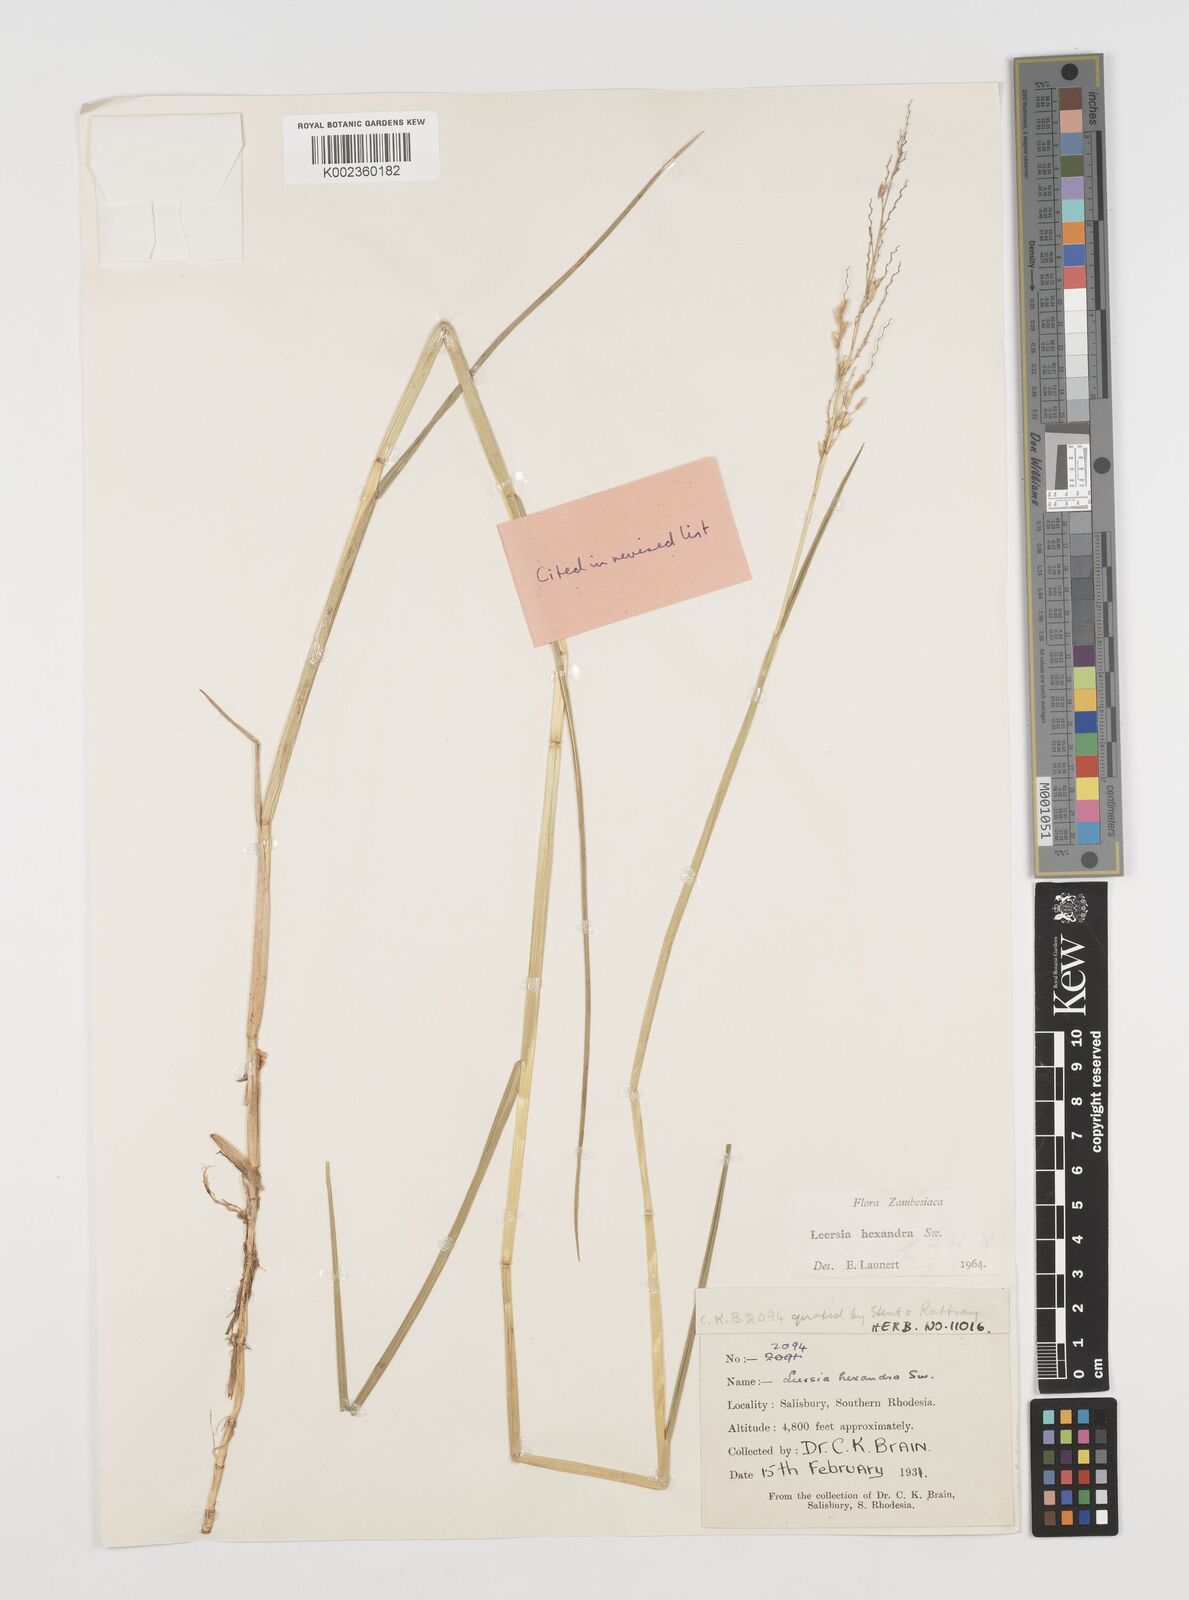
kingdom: Plantae
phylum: Tracheophyta
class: Liliopsida
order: Poales
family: Poaceae
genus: Leersia
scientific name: Leersia hexandra
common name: Southern cut grass
